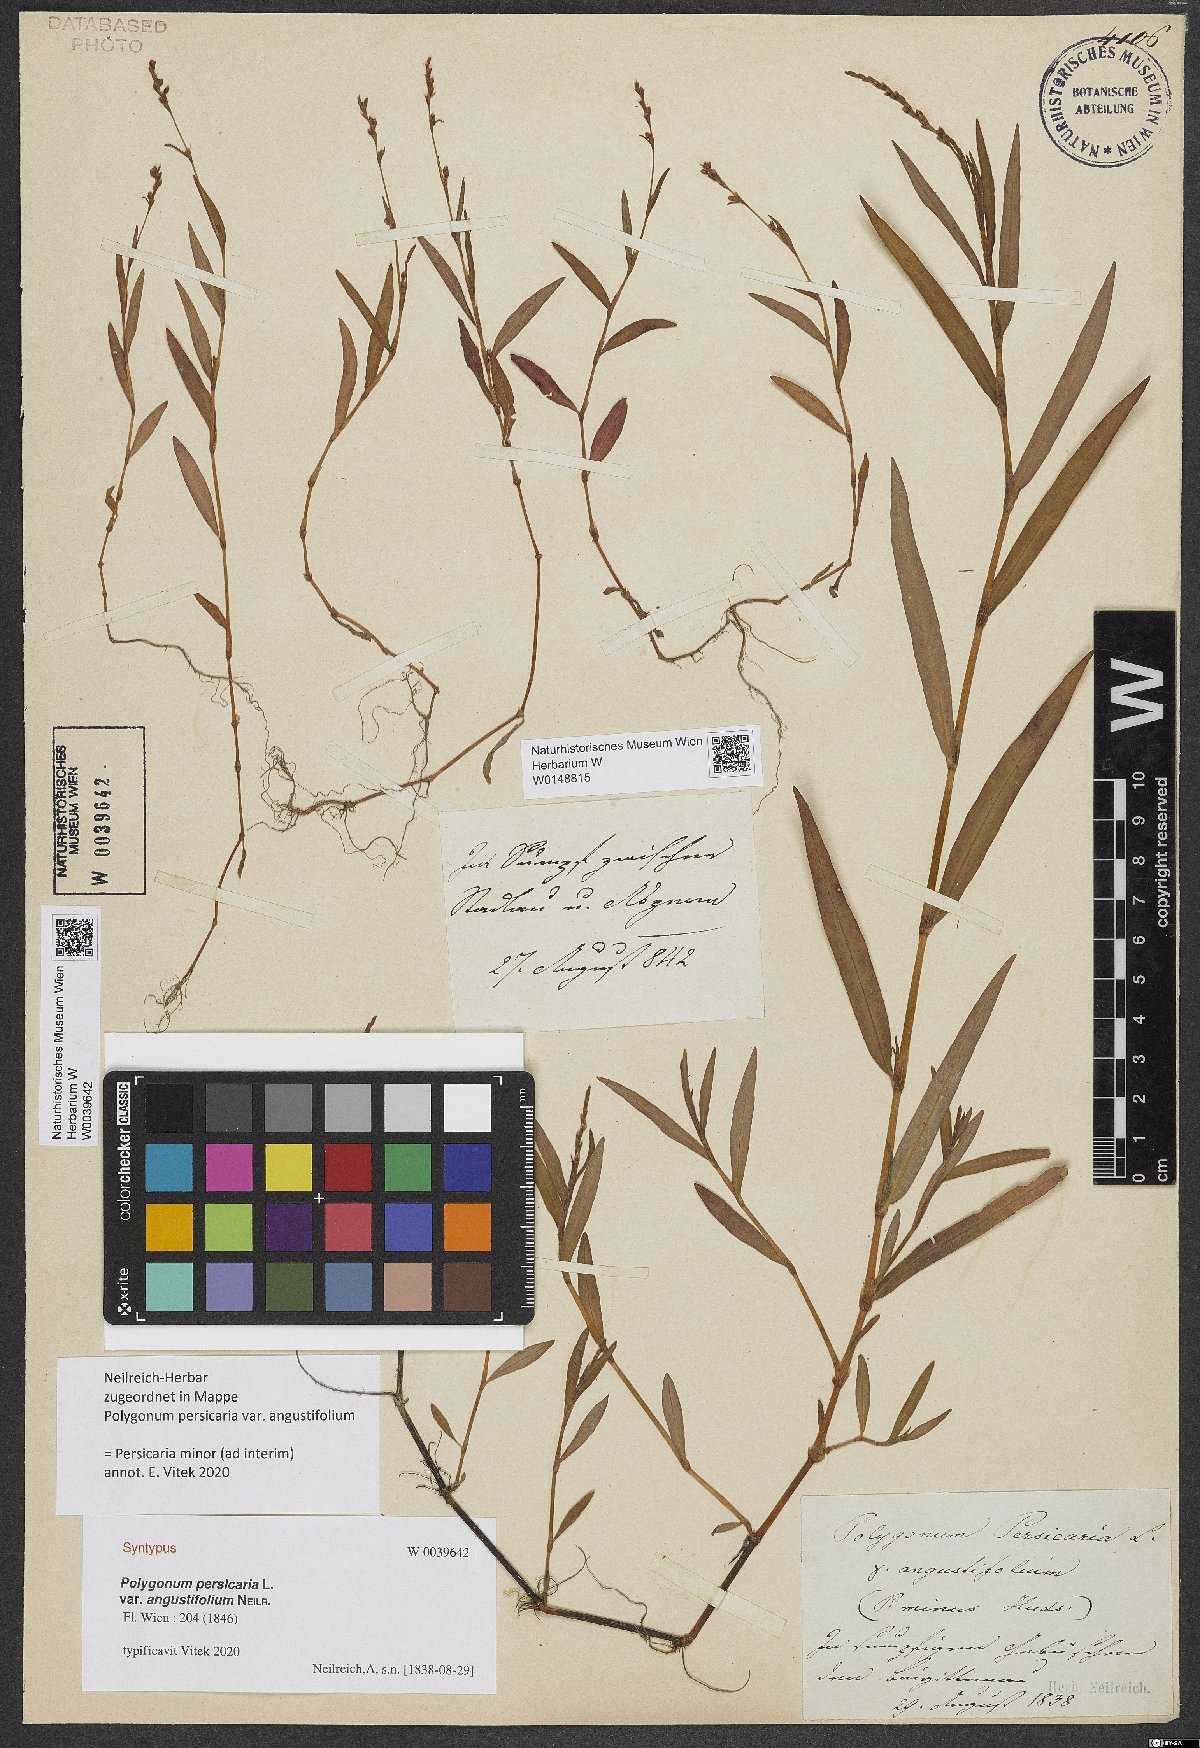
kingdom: Plantae
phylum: Tracheophyta
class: Magnoliopsida
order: Caryophyllales
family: Polygonaceae
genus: Persicaria
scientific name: Persicaria
